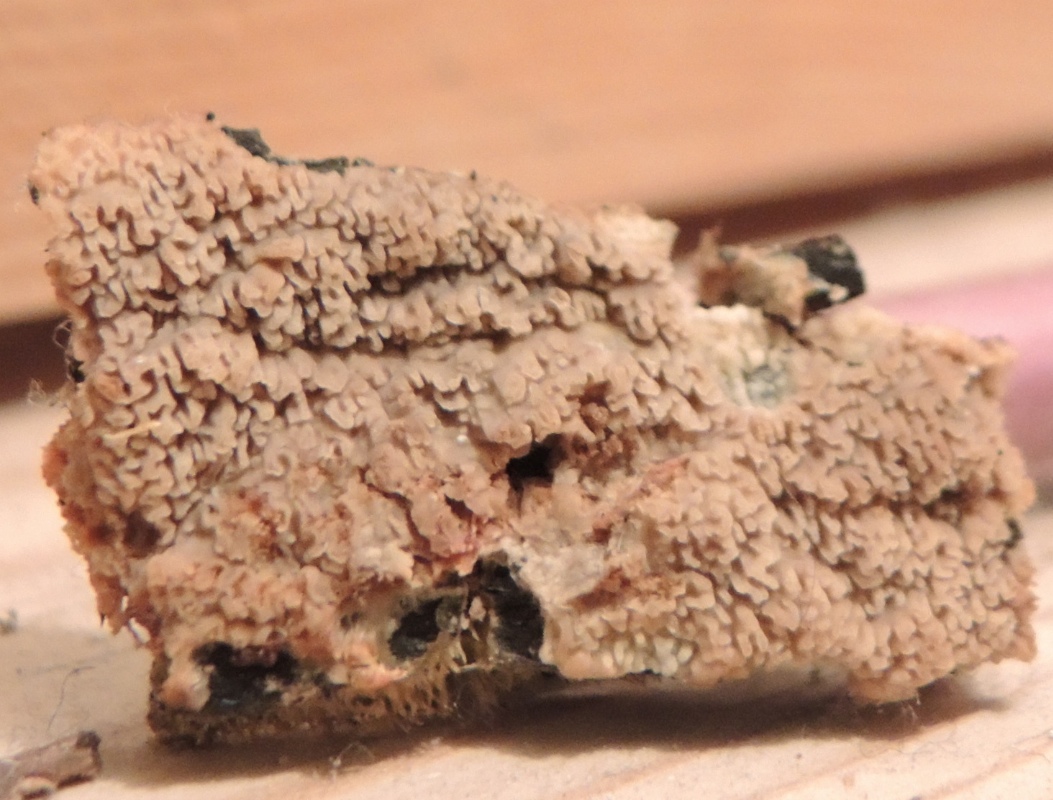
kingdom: Fungi
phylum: Basidiomycota
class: Agaricomycetes
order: Polyporales
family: Meruliaceae
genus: Phlebia
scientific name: Phlebia rufa
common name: ege-åresvamp
